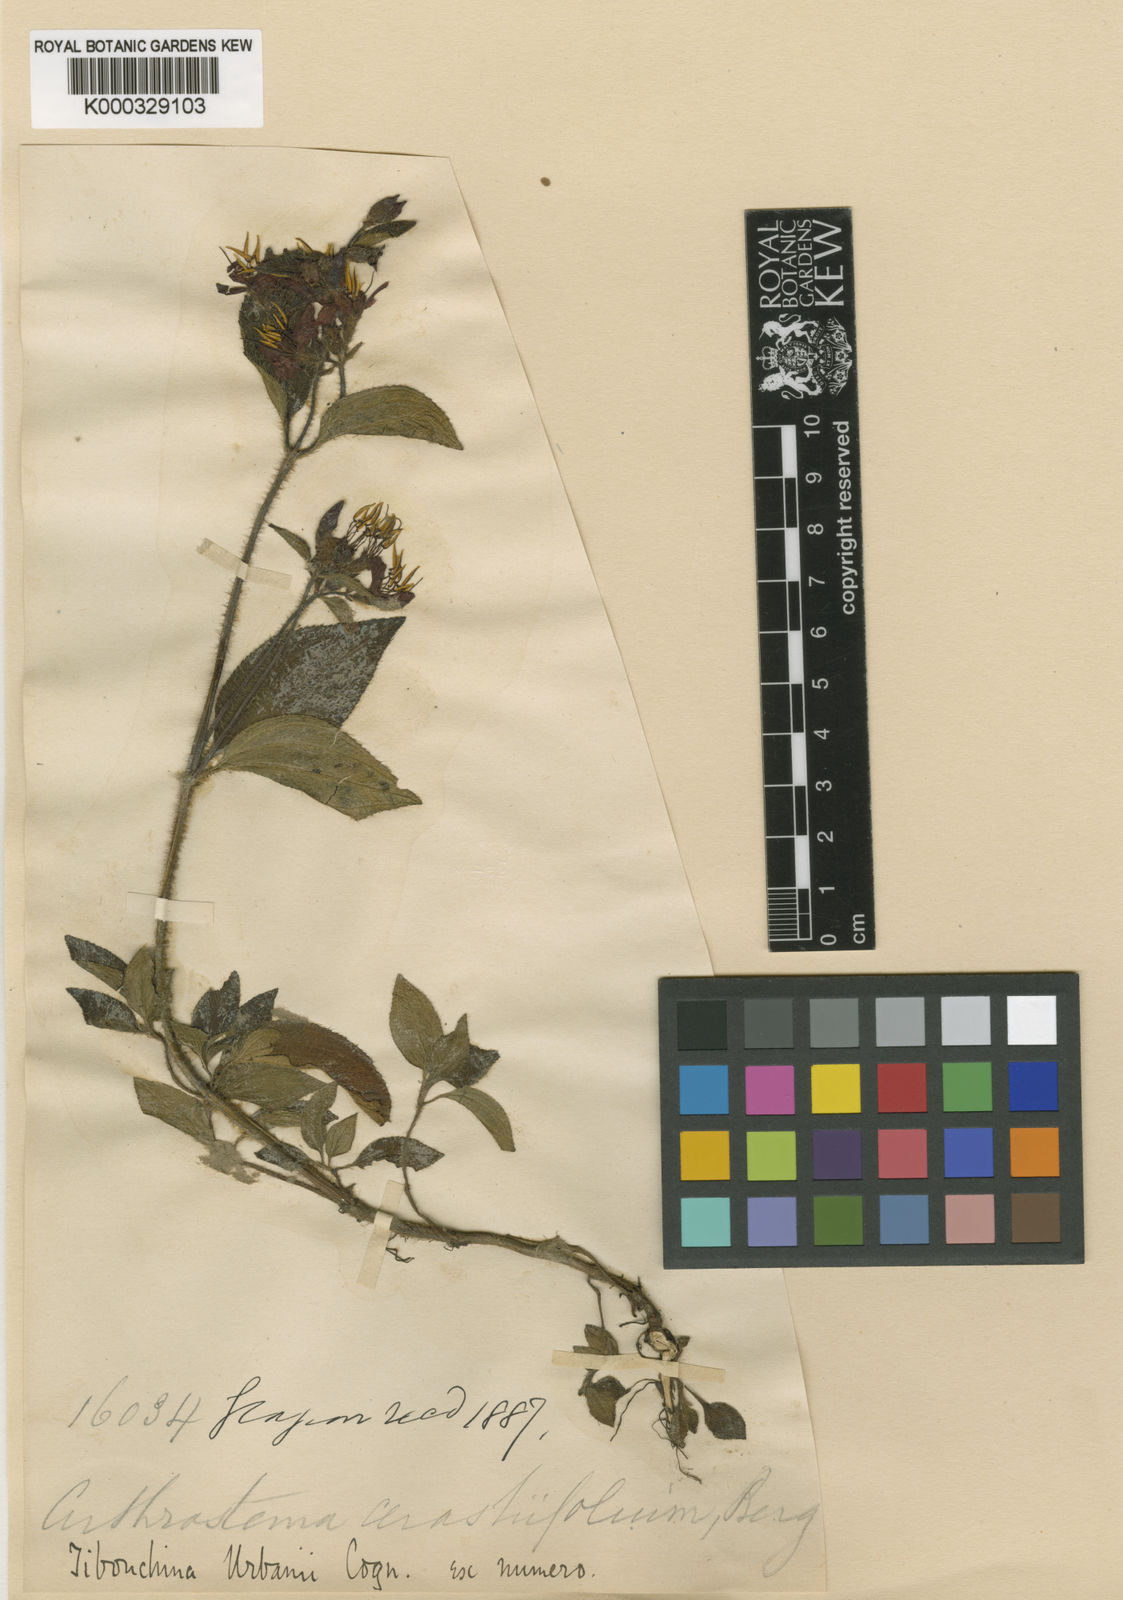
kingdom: Plantae
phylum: Tracheophyta
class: Magnoliopsida
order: Myrtales
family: Melastomataceae
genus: Chaetogastra
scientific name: Chaetogastra urbanii
